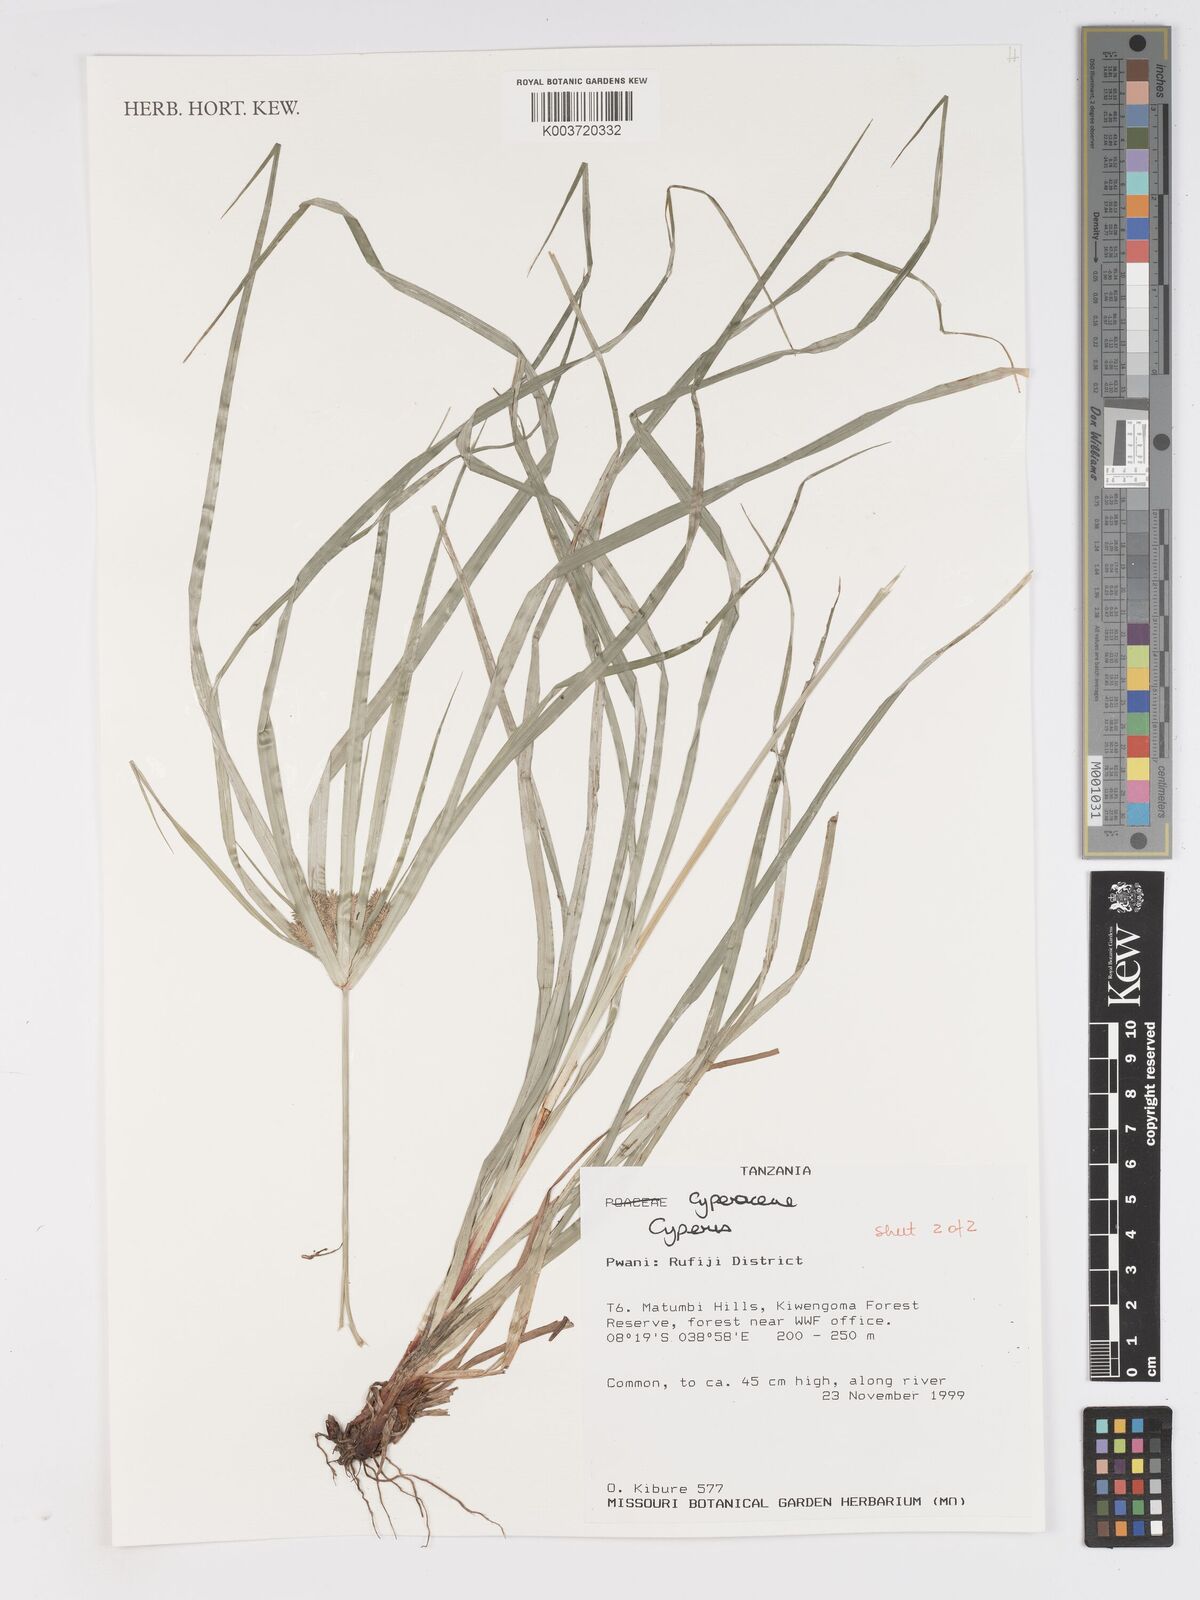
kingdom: Plantae
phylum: Tracheophyta
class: Liliopsida
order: Poales
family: Cyperaceae
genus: Cyperus
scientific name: Cyperus
